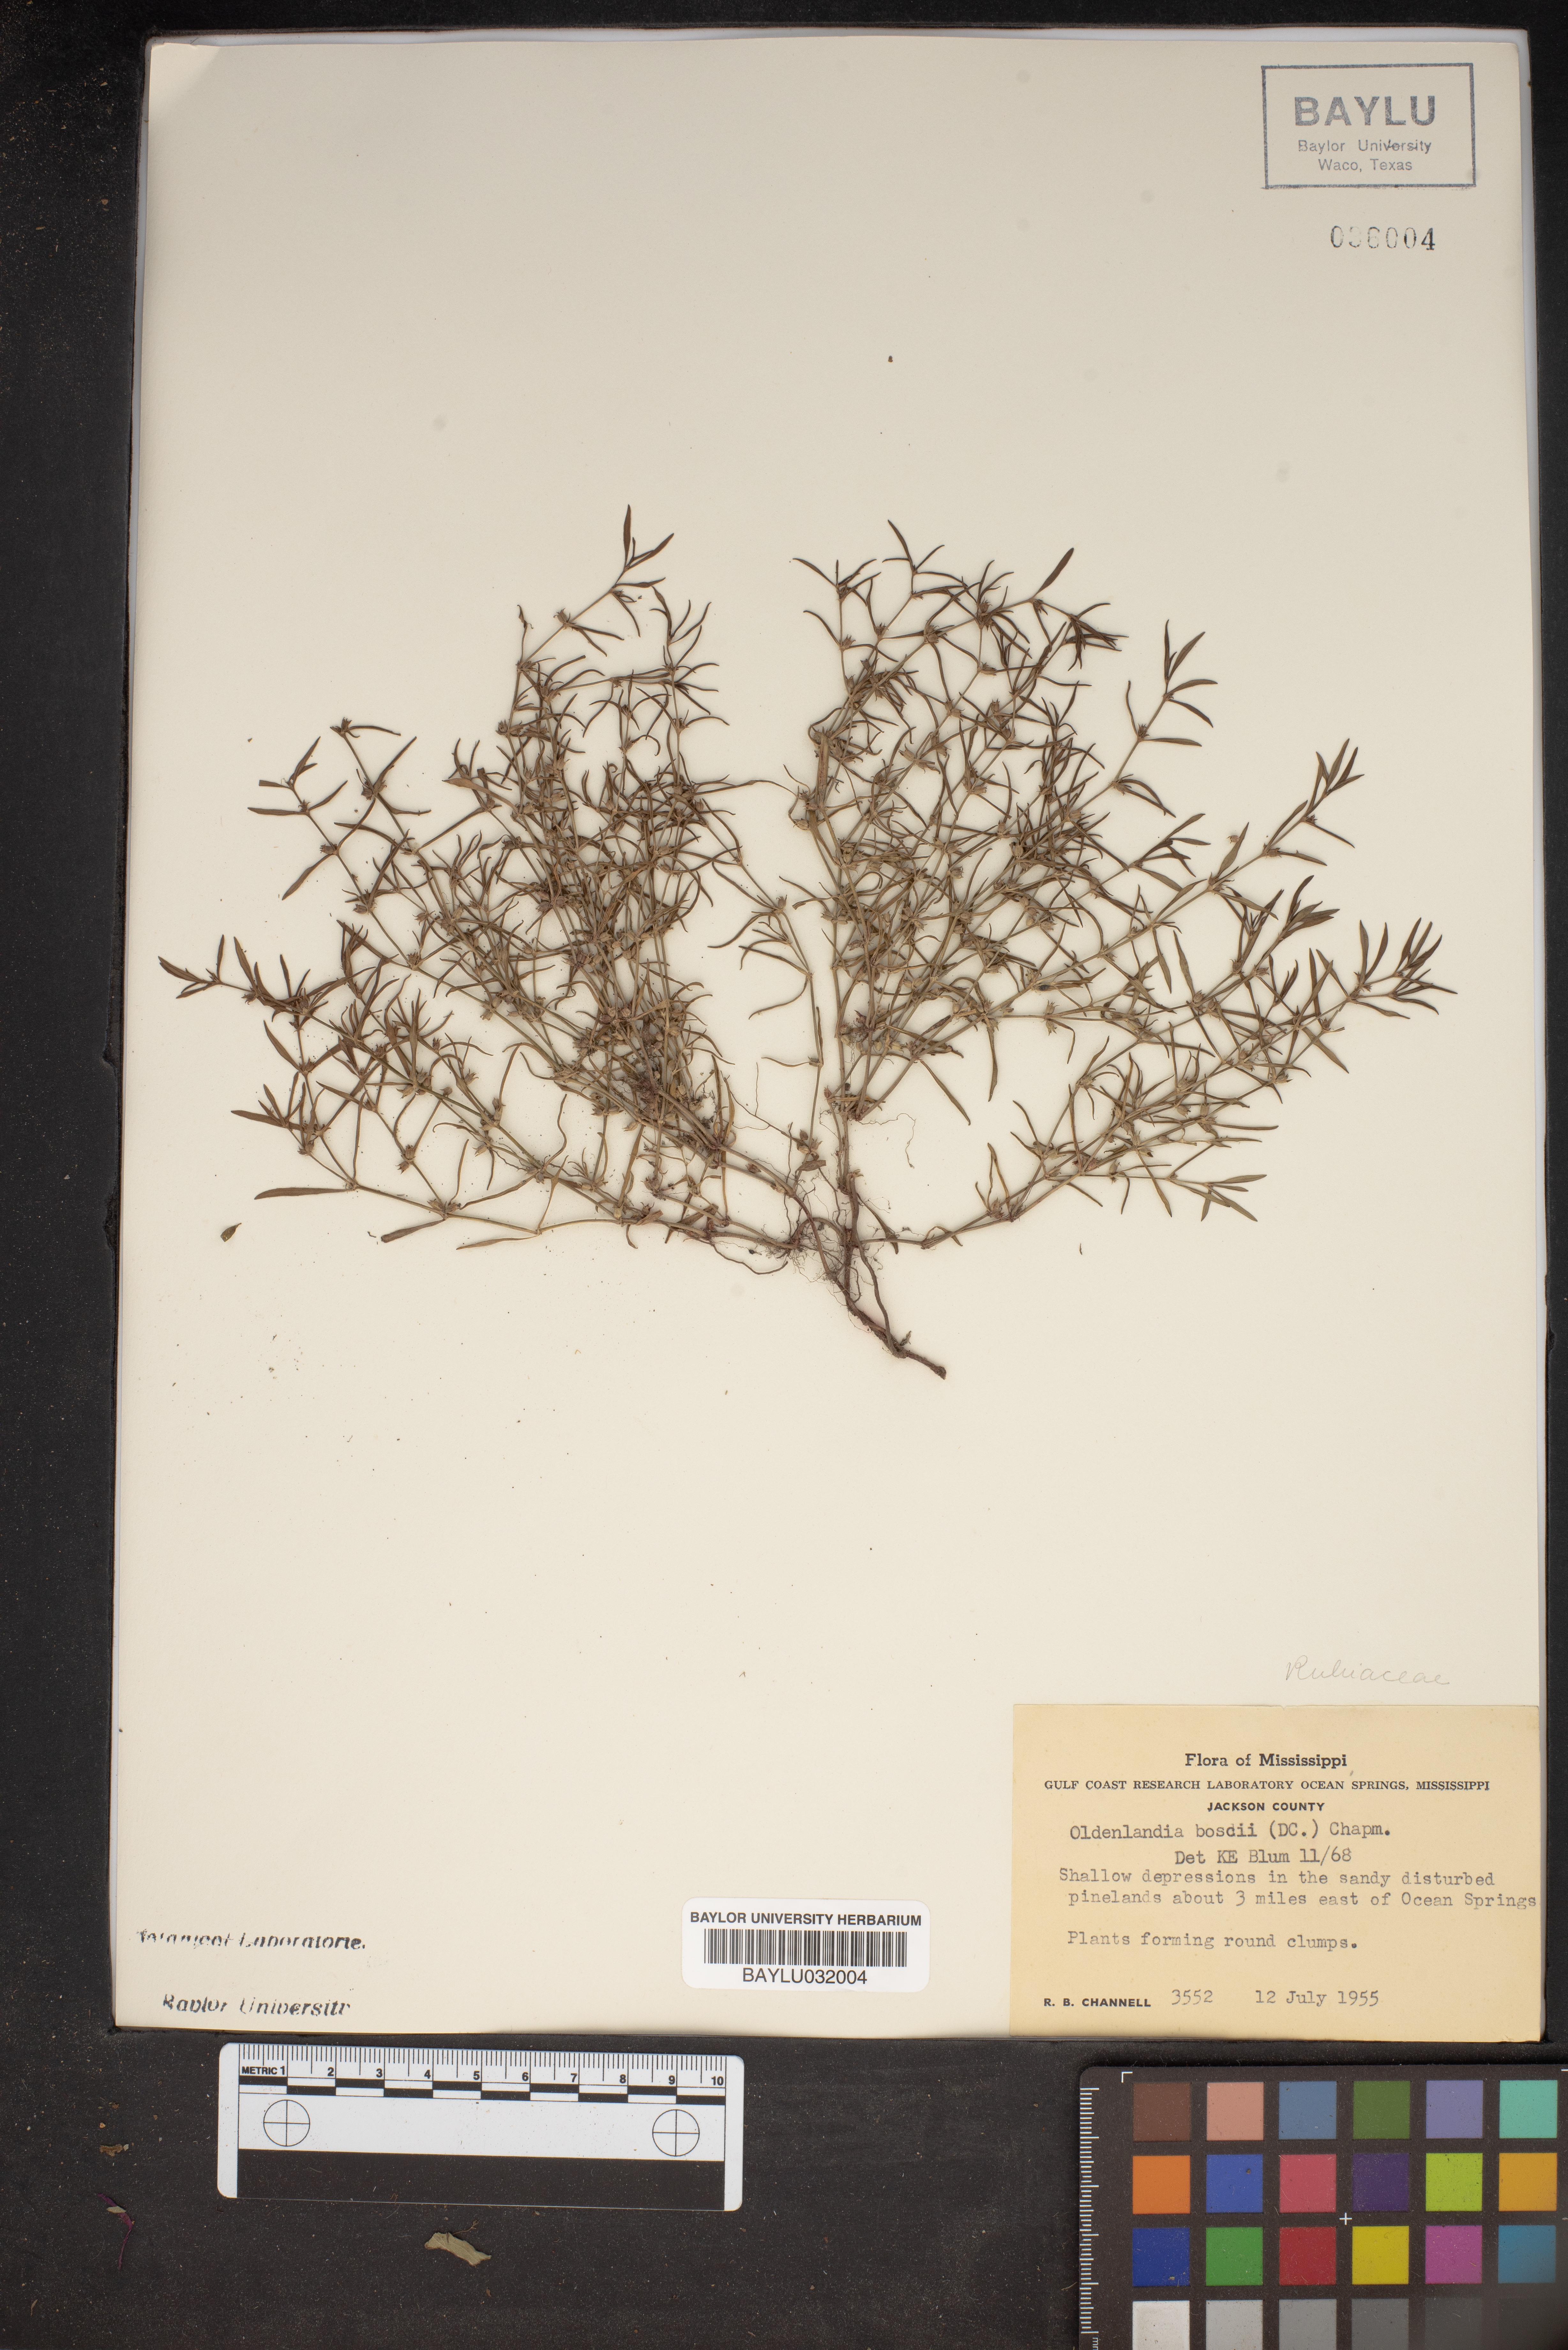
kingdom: Plantae
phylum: Tracheophyta
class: Magnoliopsida
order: Gentianales
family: Rubiaceae
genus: Oldenlandia
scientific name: Oldenlandia boscii
